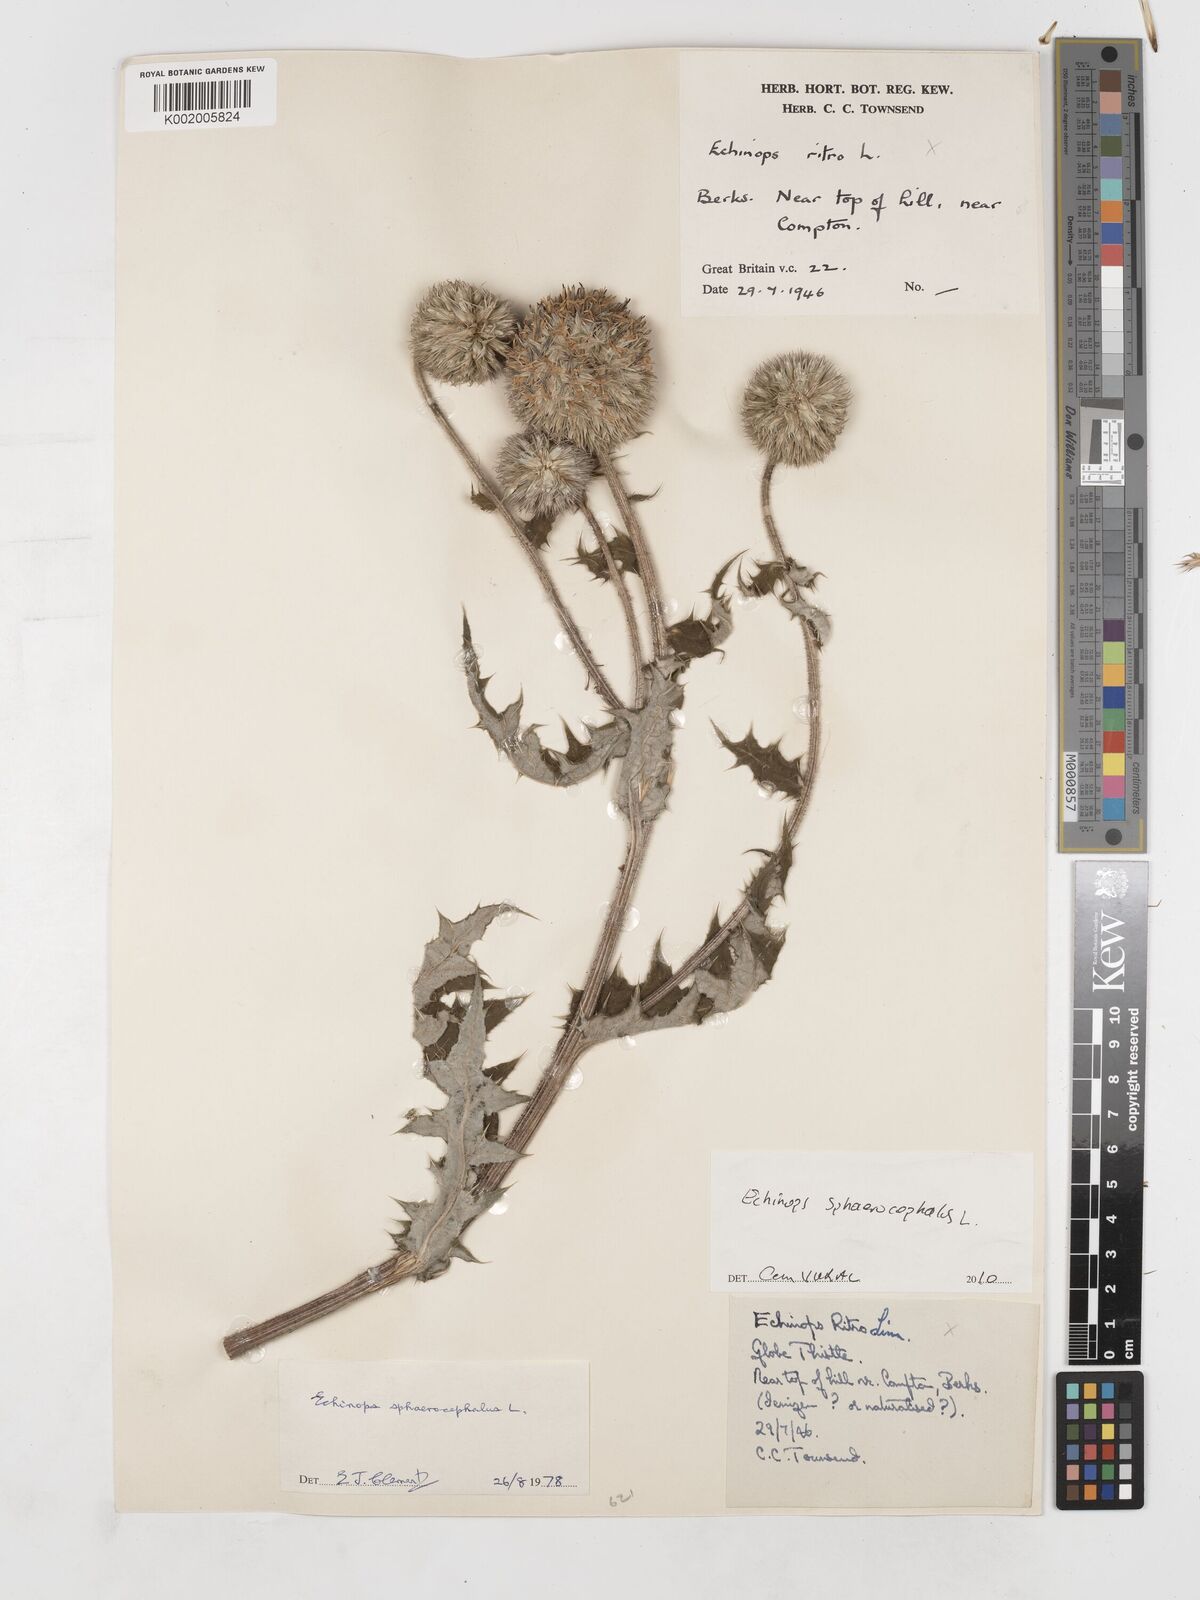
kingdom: Plantae
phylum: Tracheophyta
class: Magnoliopsida
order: Asterales
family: Asteraceae
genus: Echinops
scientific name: Echinops sphaerocephalus
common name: Glandular globe-thistle
